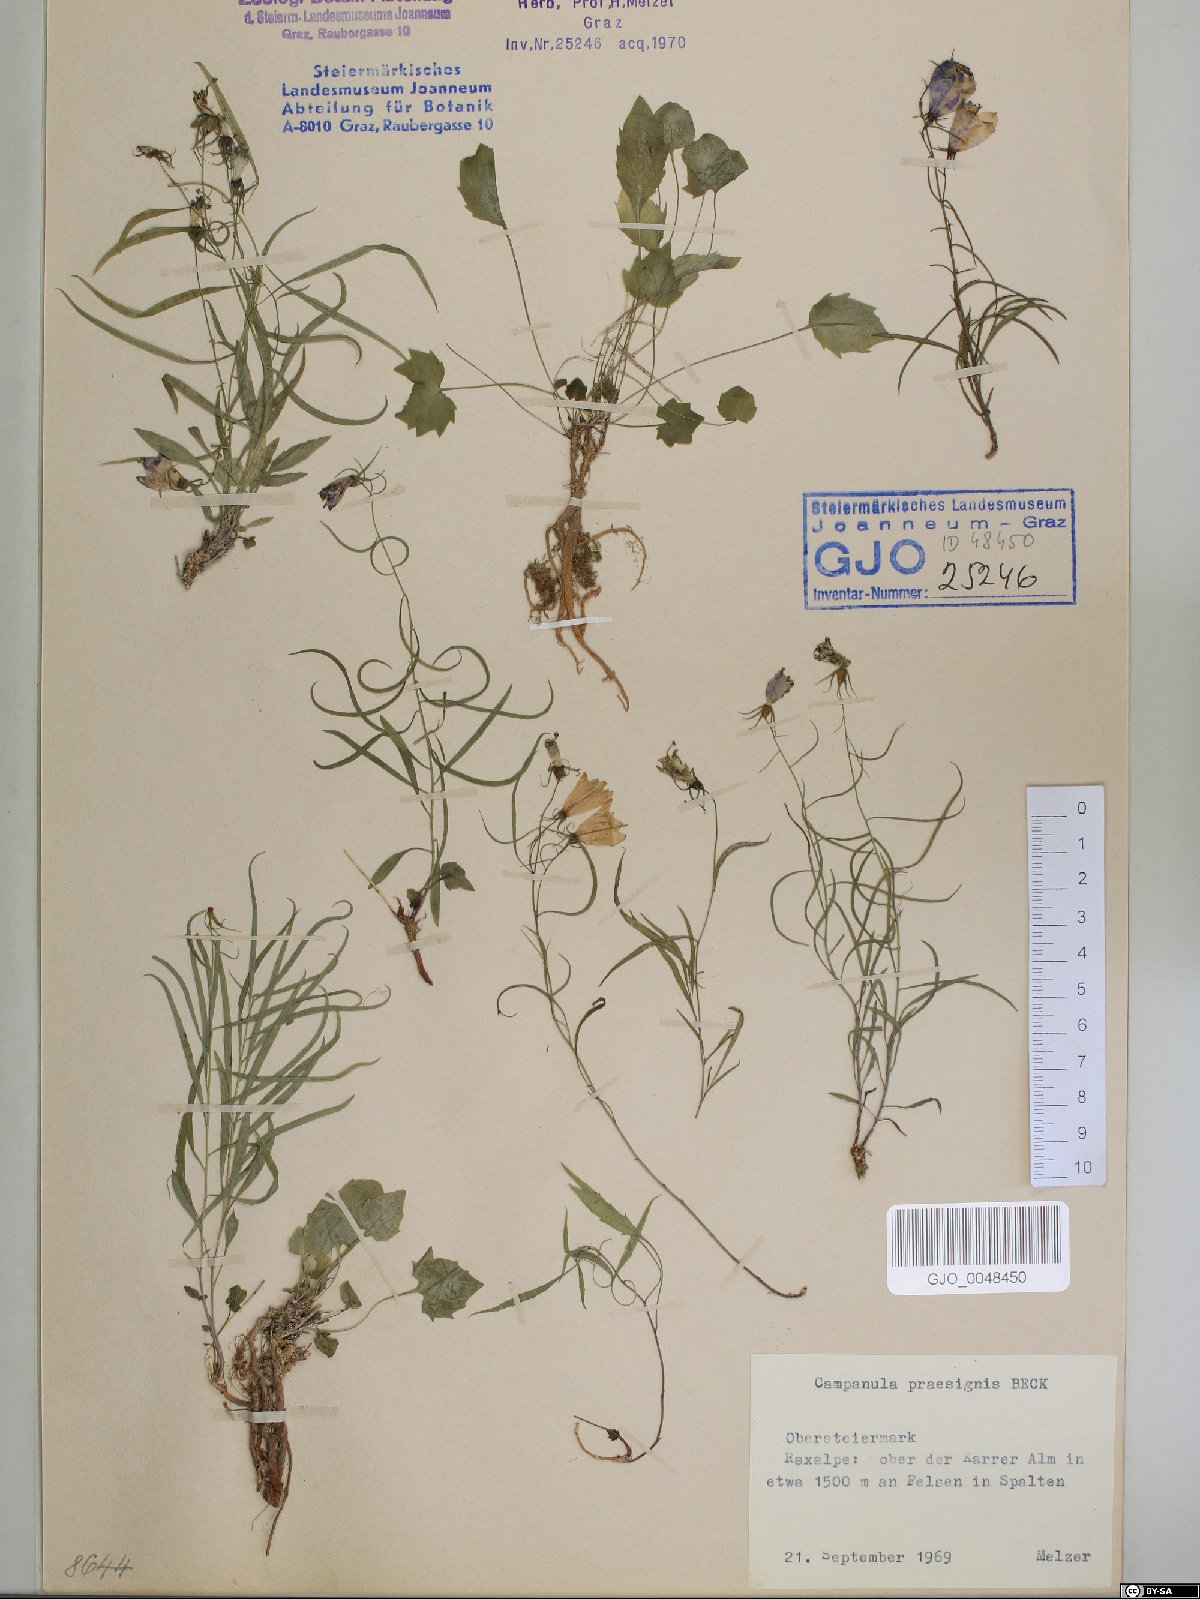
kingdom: Plantae
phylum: Tracheophyta
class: Magnoliopsida
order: Asterales
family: Campanulaceae
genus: Campanula
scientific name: Campanula praesignis
